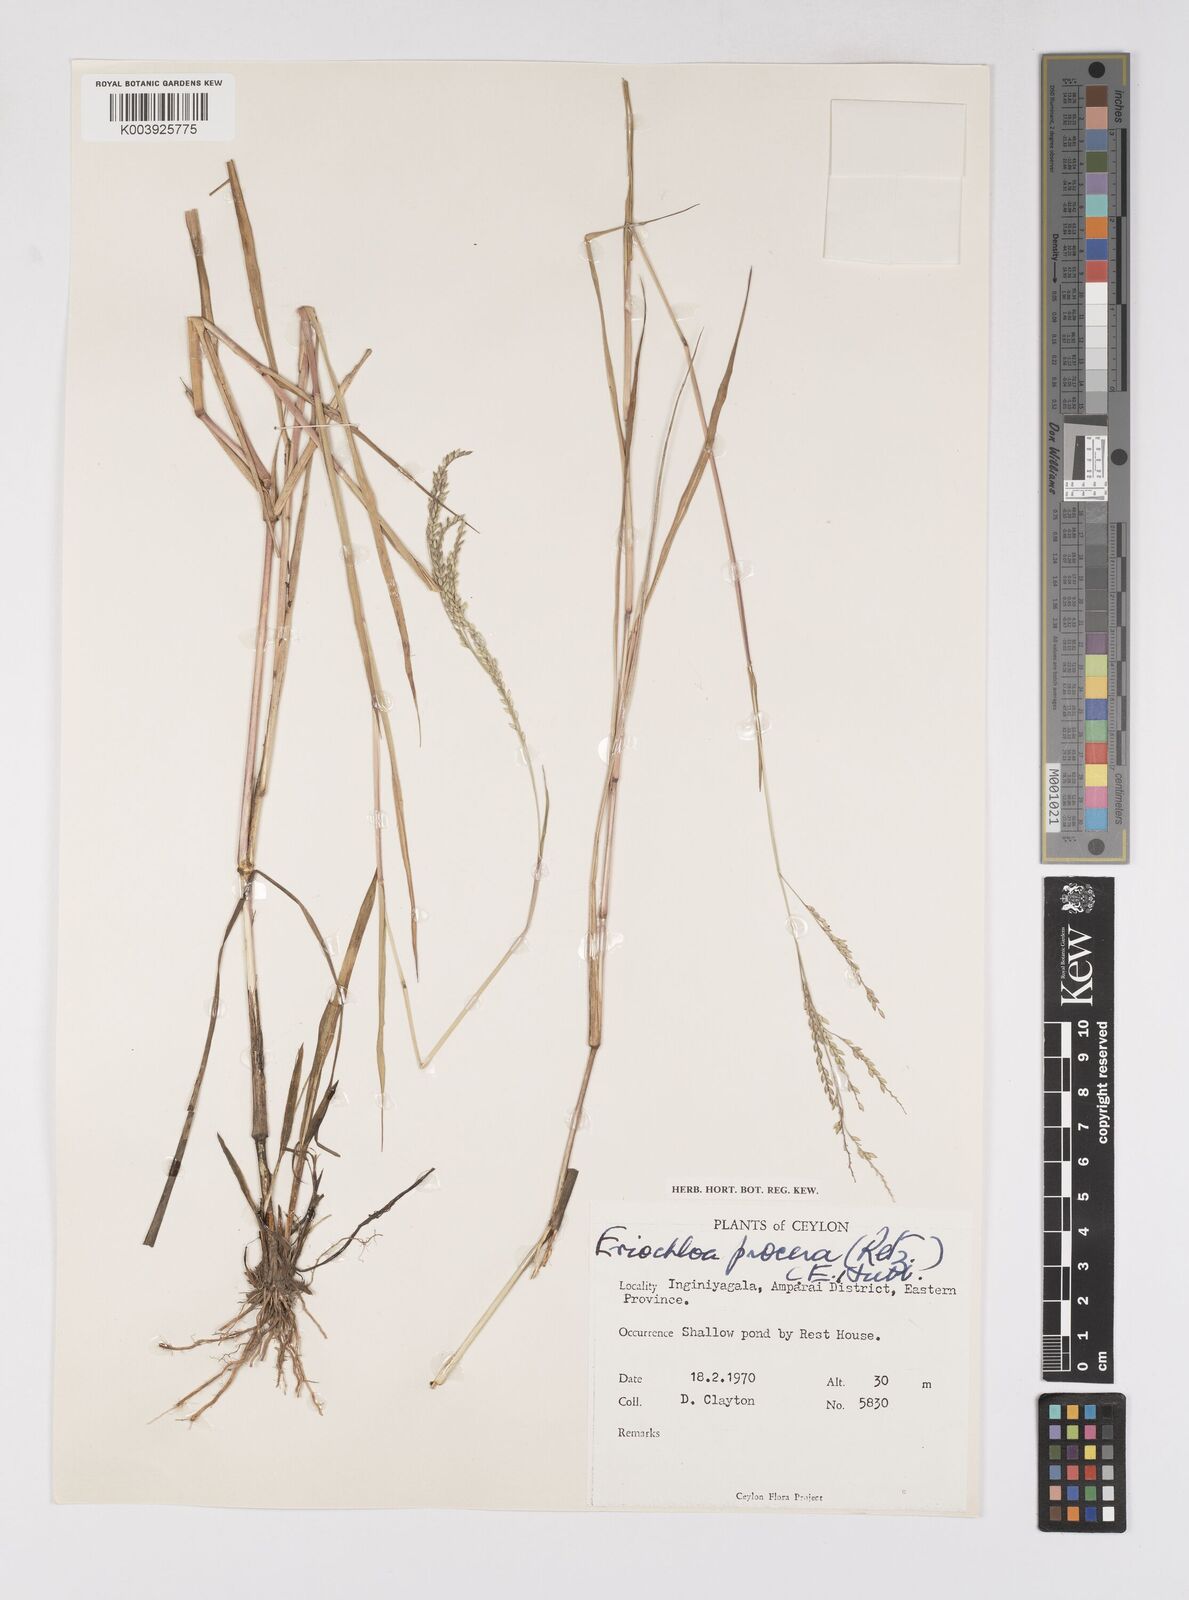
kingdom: Plantae
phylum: Tracheophyta
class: Liliopsida
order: Poales
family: Poaceae
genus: Eriochloa
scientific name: Eriochloa procera
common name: Spring grass
